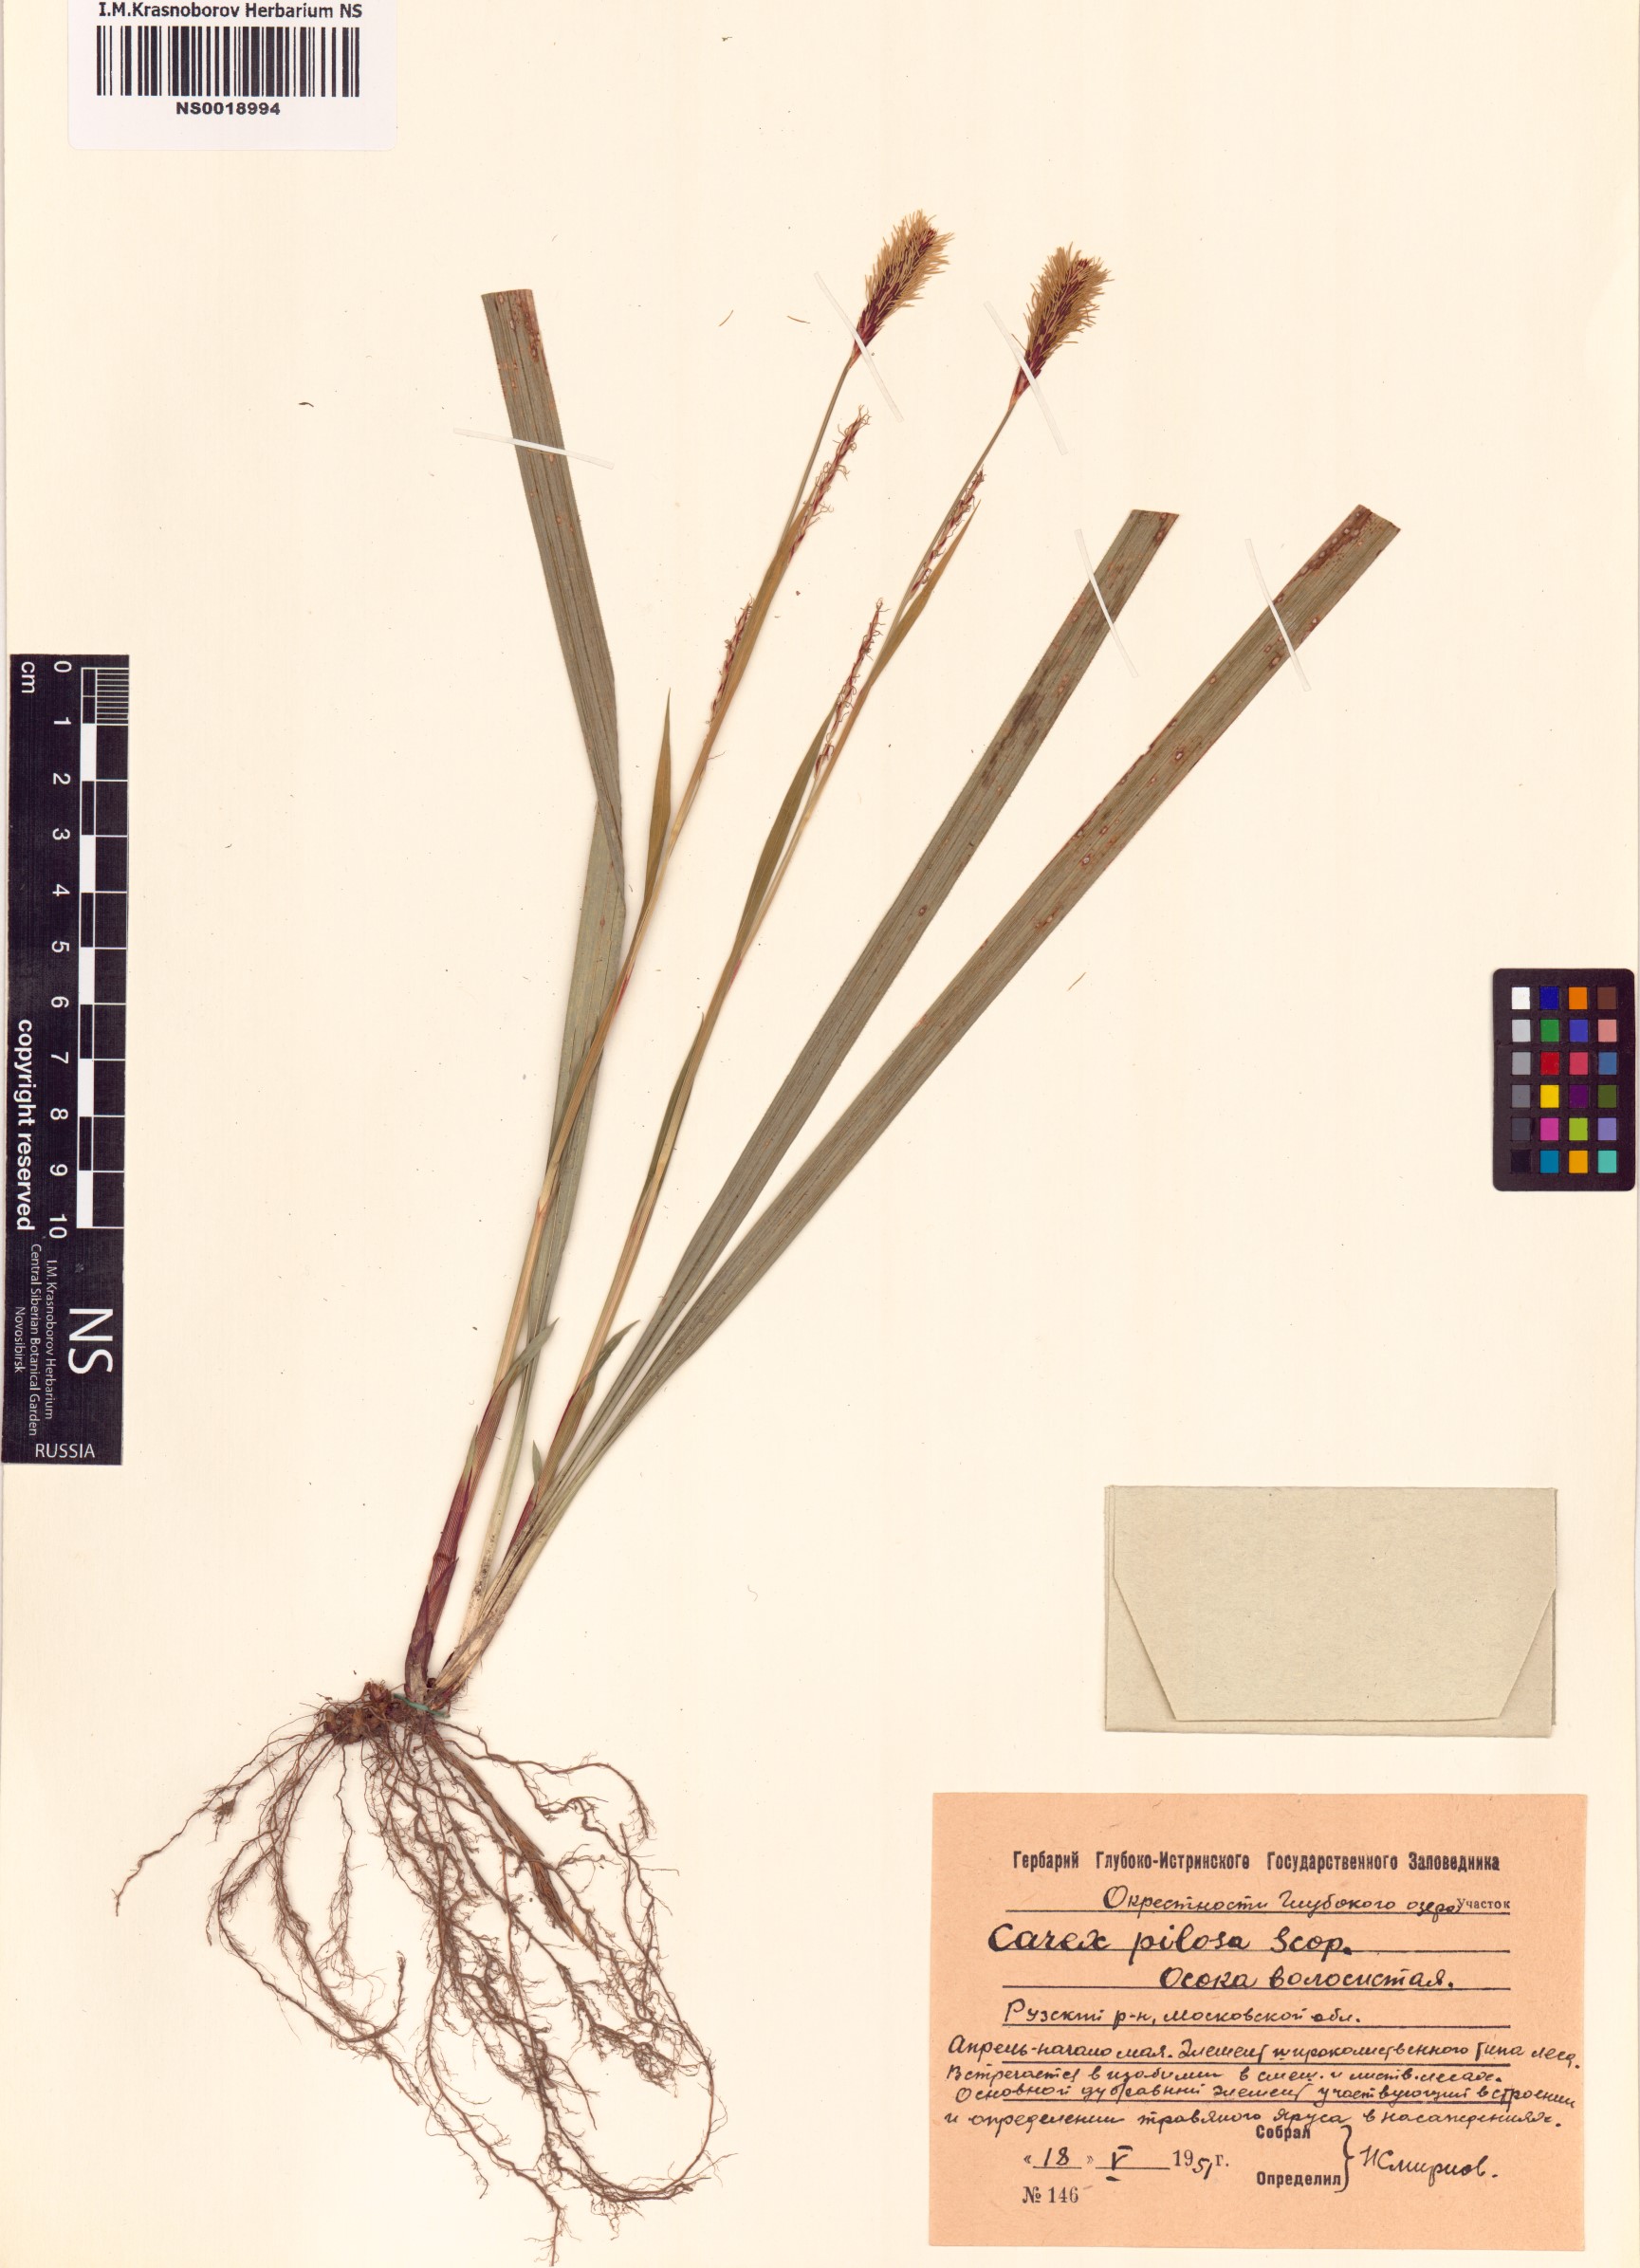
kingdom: Plantae
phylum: Tracheophyta
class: Liliopsida
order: Poales
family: Cyperaceae
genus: Carex
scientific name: Carex pilosa
